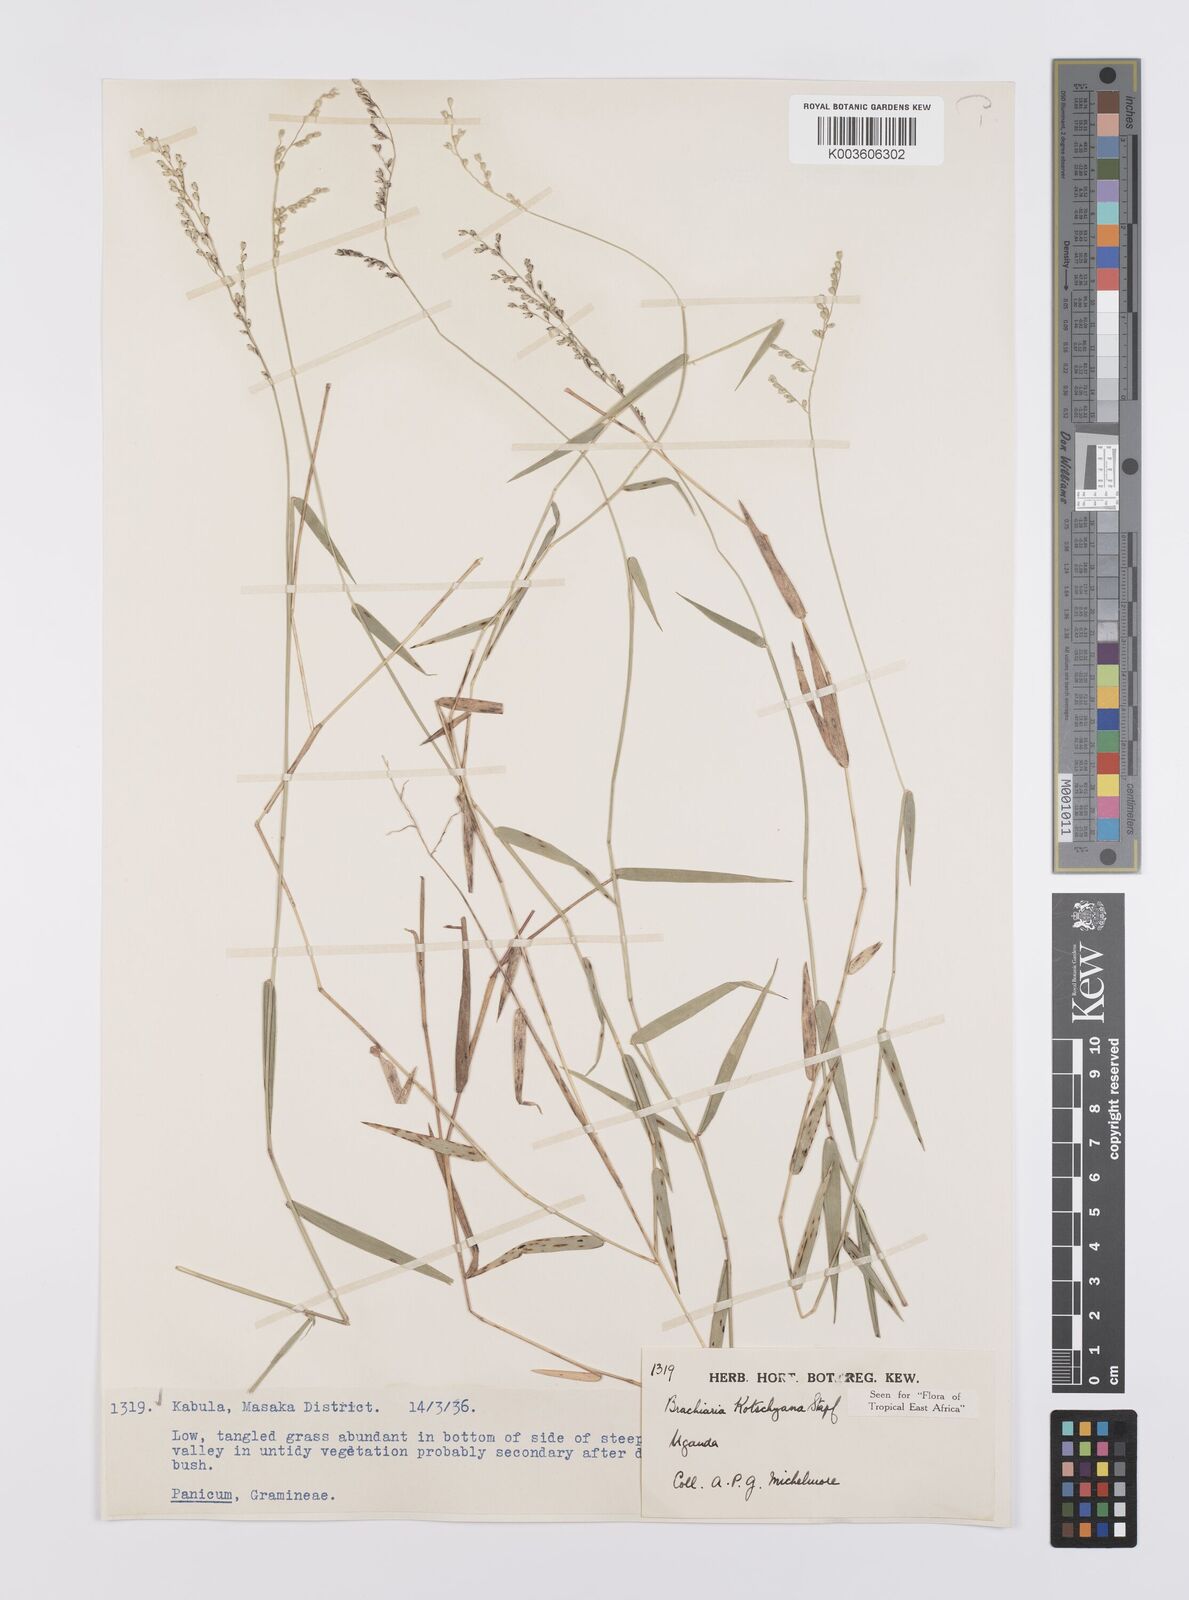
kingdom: Plantae
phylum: Tracheophyta
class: Liliopsida
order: Poales
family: Poaceae
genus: Urochloa
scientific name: Urochloa comata
